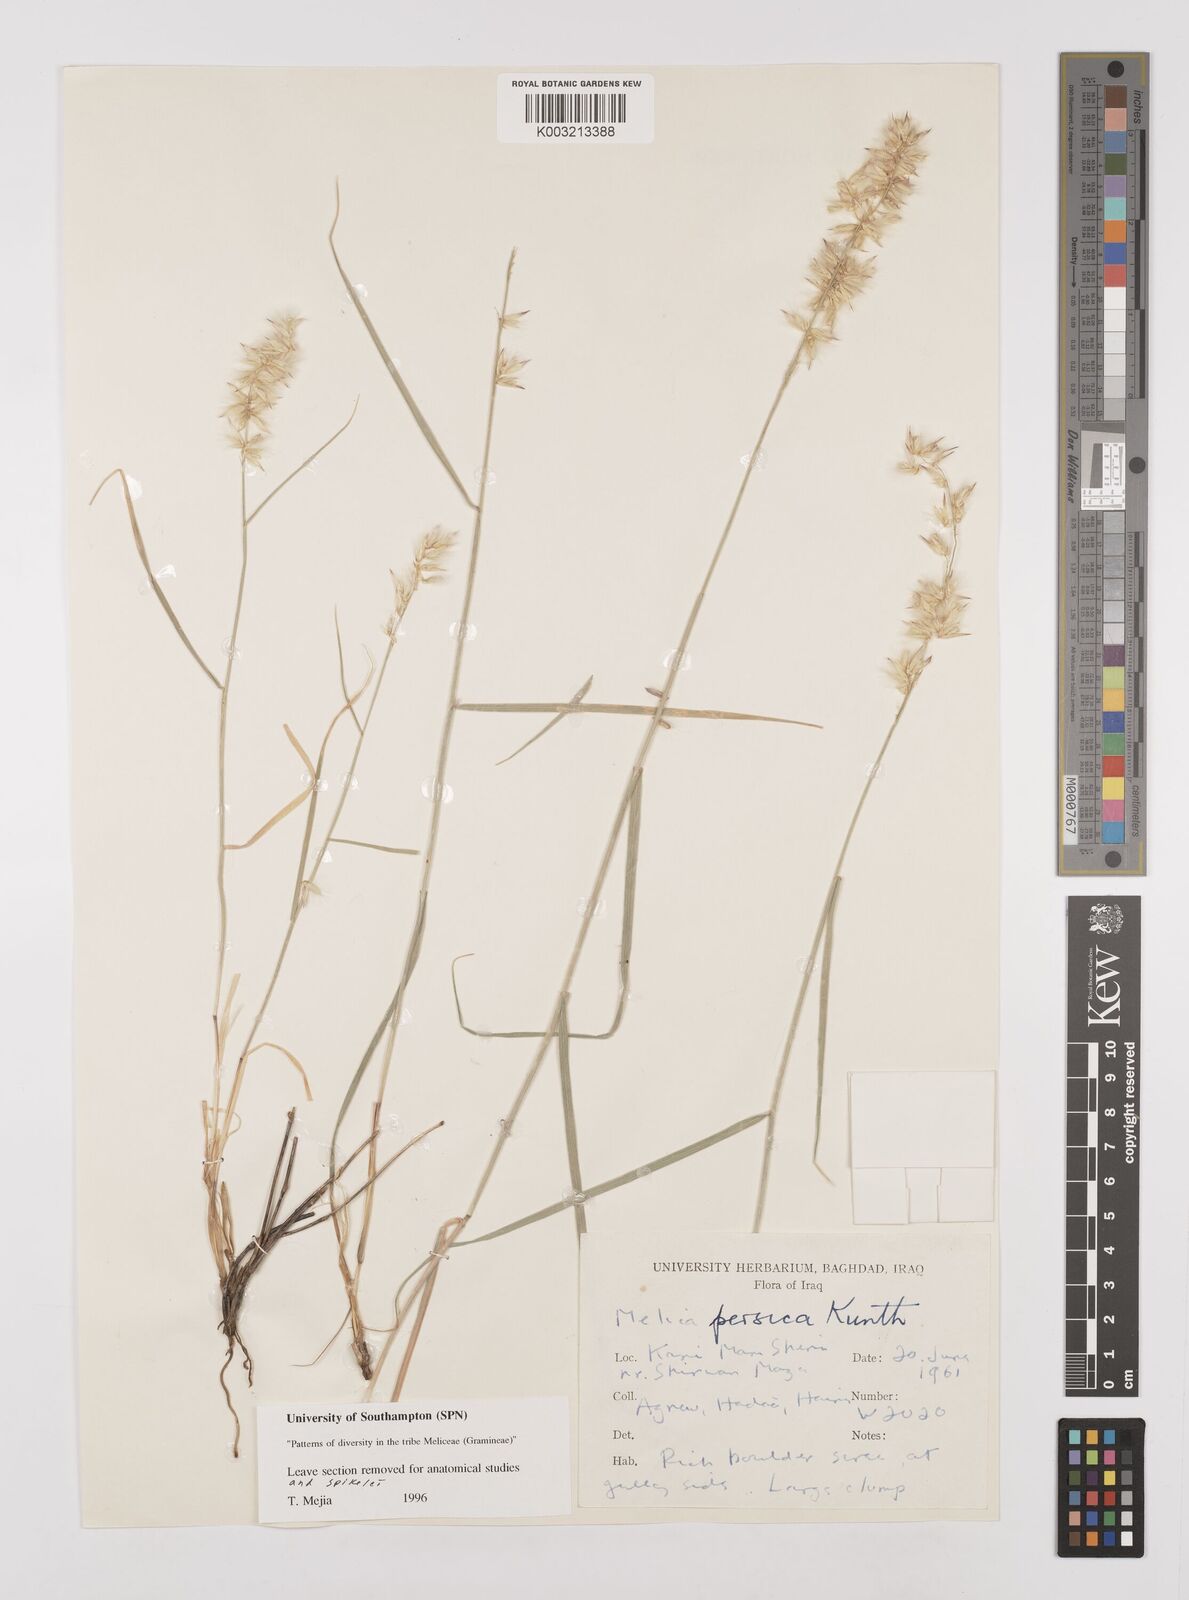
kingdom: Plantae
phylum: Tracheophyta
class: Liliopsida
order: Poales
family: Poaceae
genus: Melica
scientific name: Melica persica
